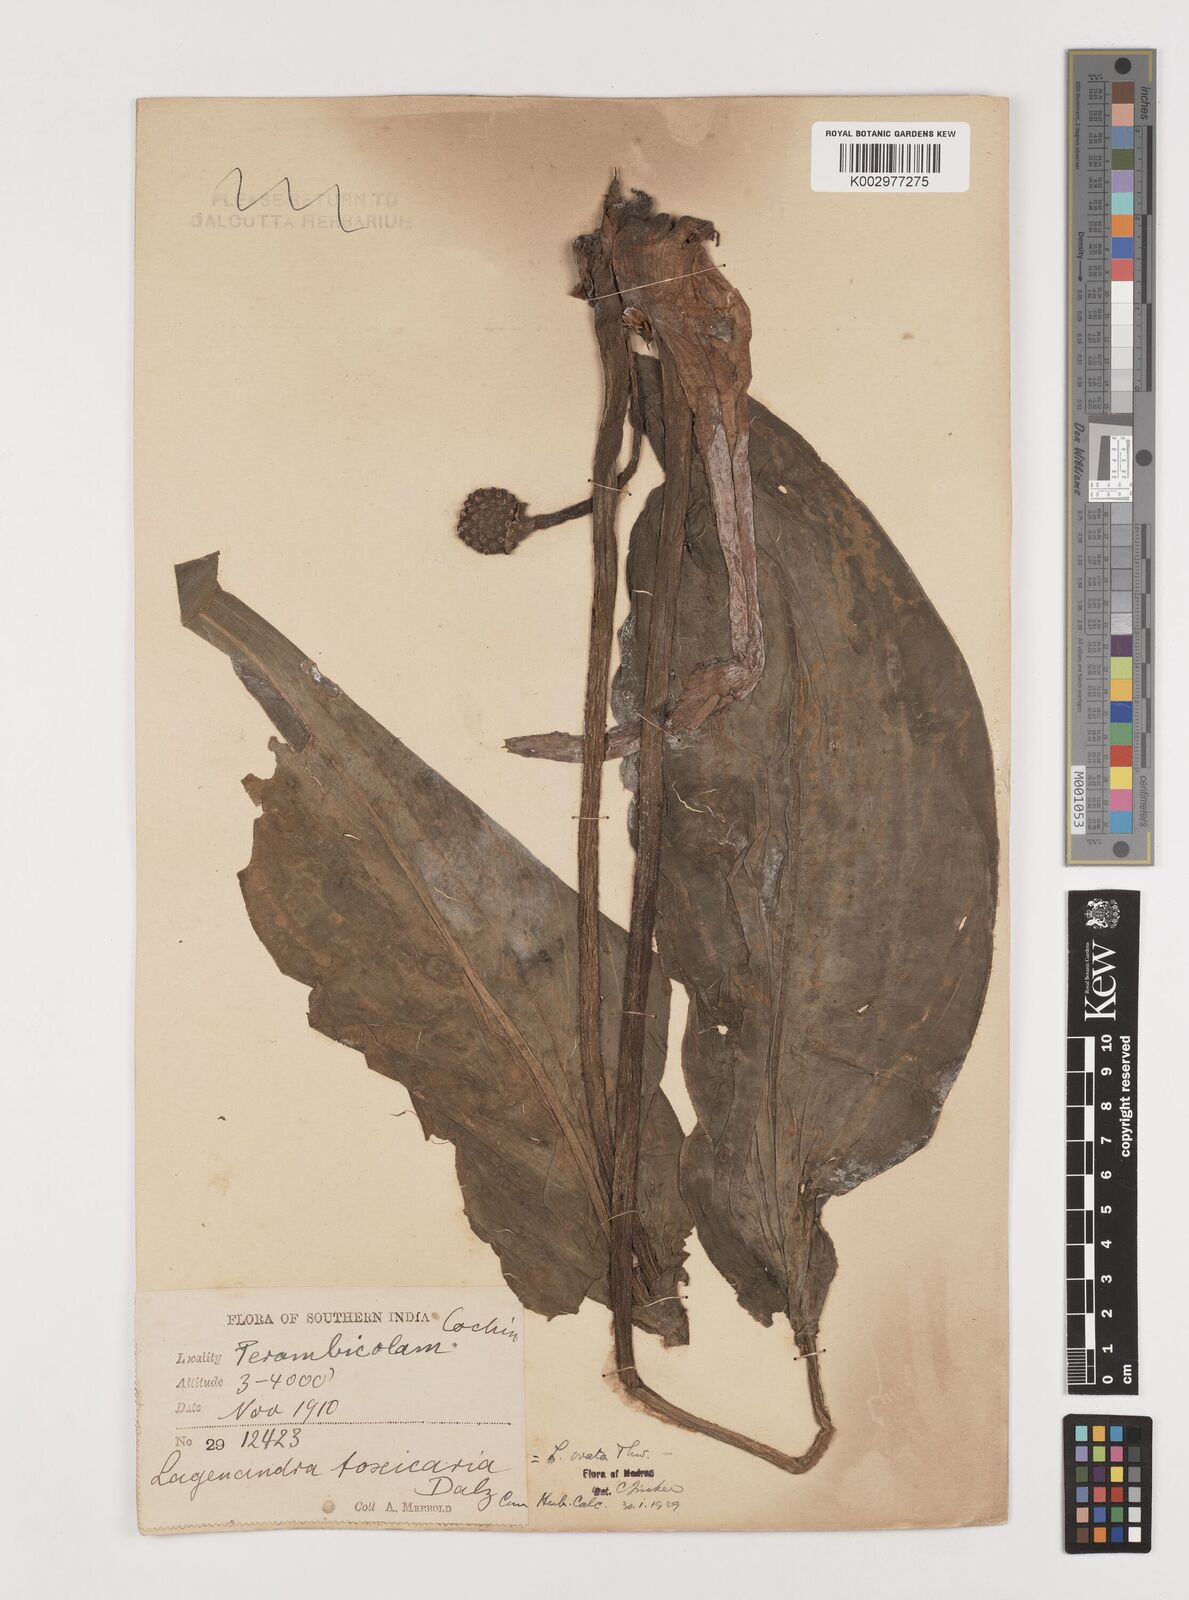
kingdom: Plantae
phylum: Tracheophyta
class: Liliopsida
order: Alismatales
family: Araceae
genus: Lagenandra
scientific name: Lagenandra ovata
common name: Malayan sword
